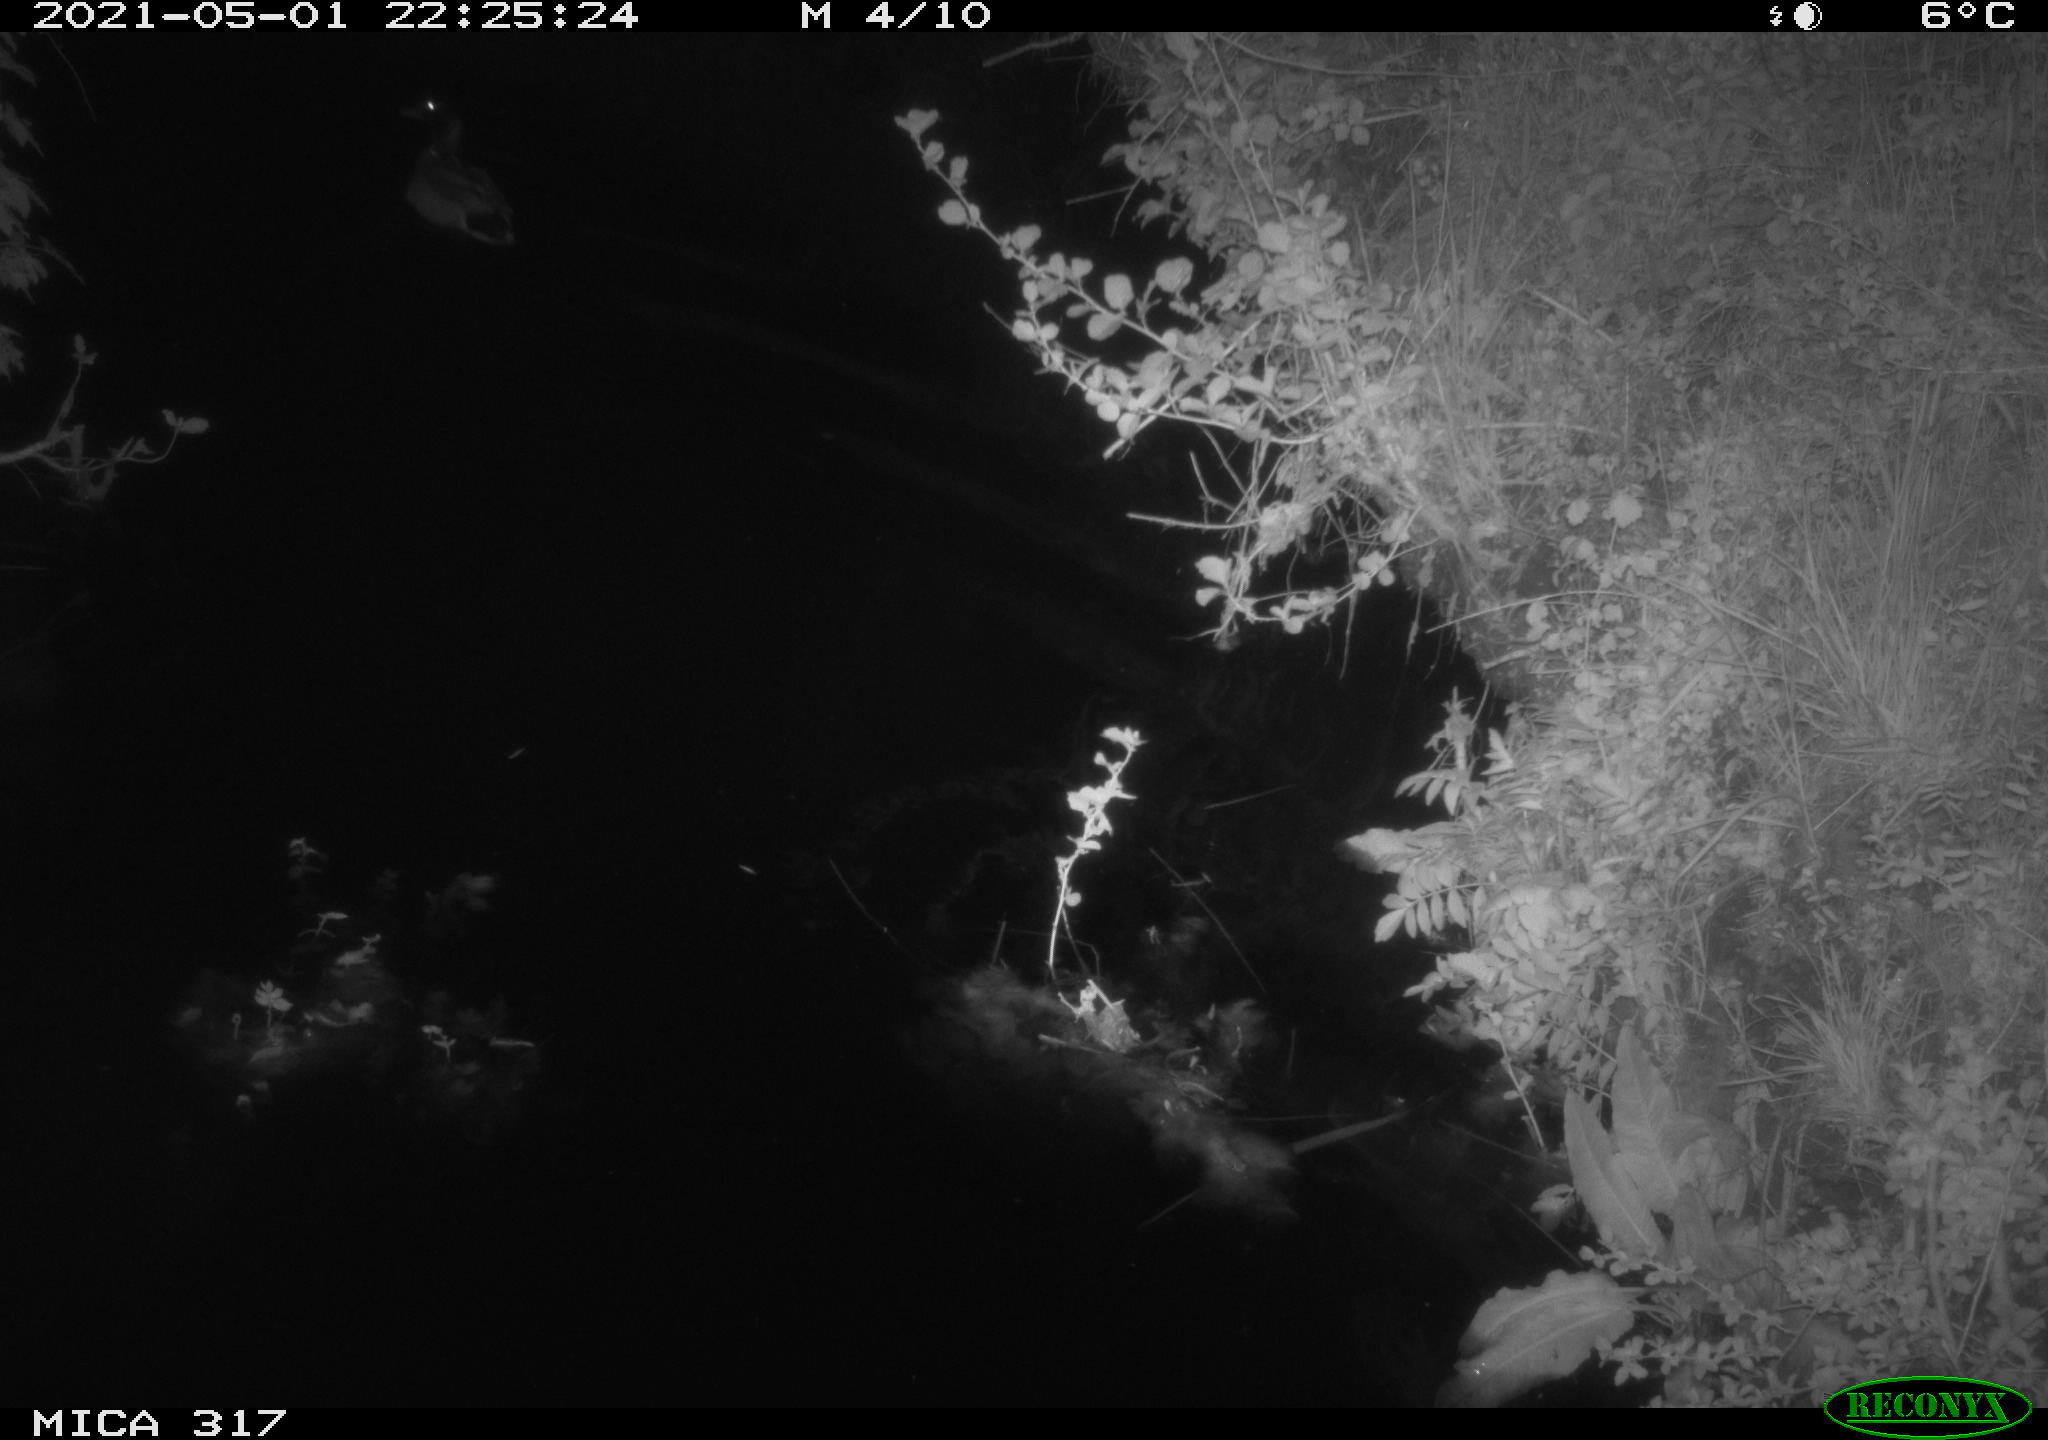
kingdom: Animalia
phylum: Chordata
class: Aves
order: Anseriformes
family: Anatidae
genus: Anas
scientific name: Anas
